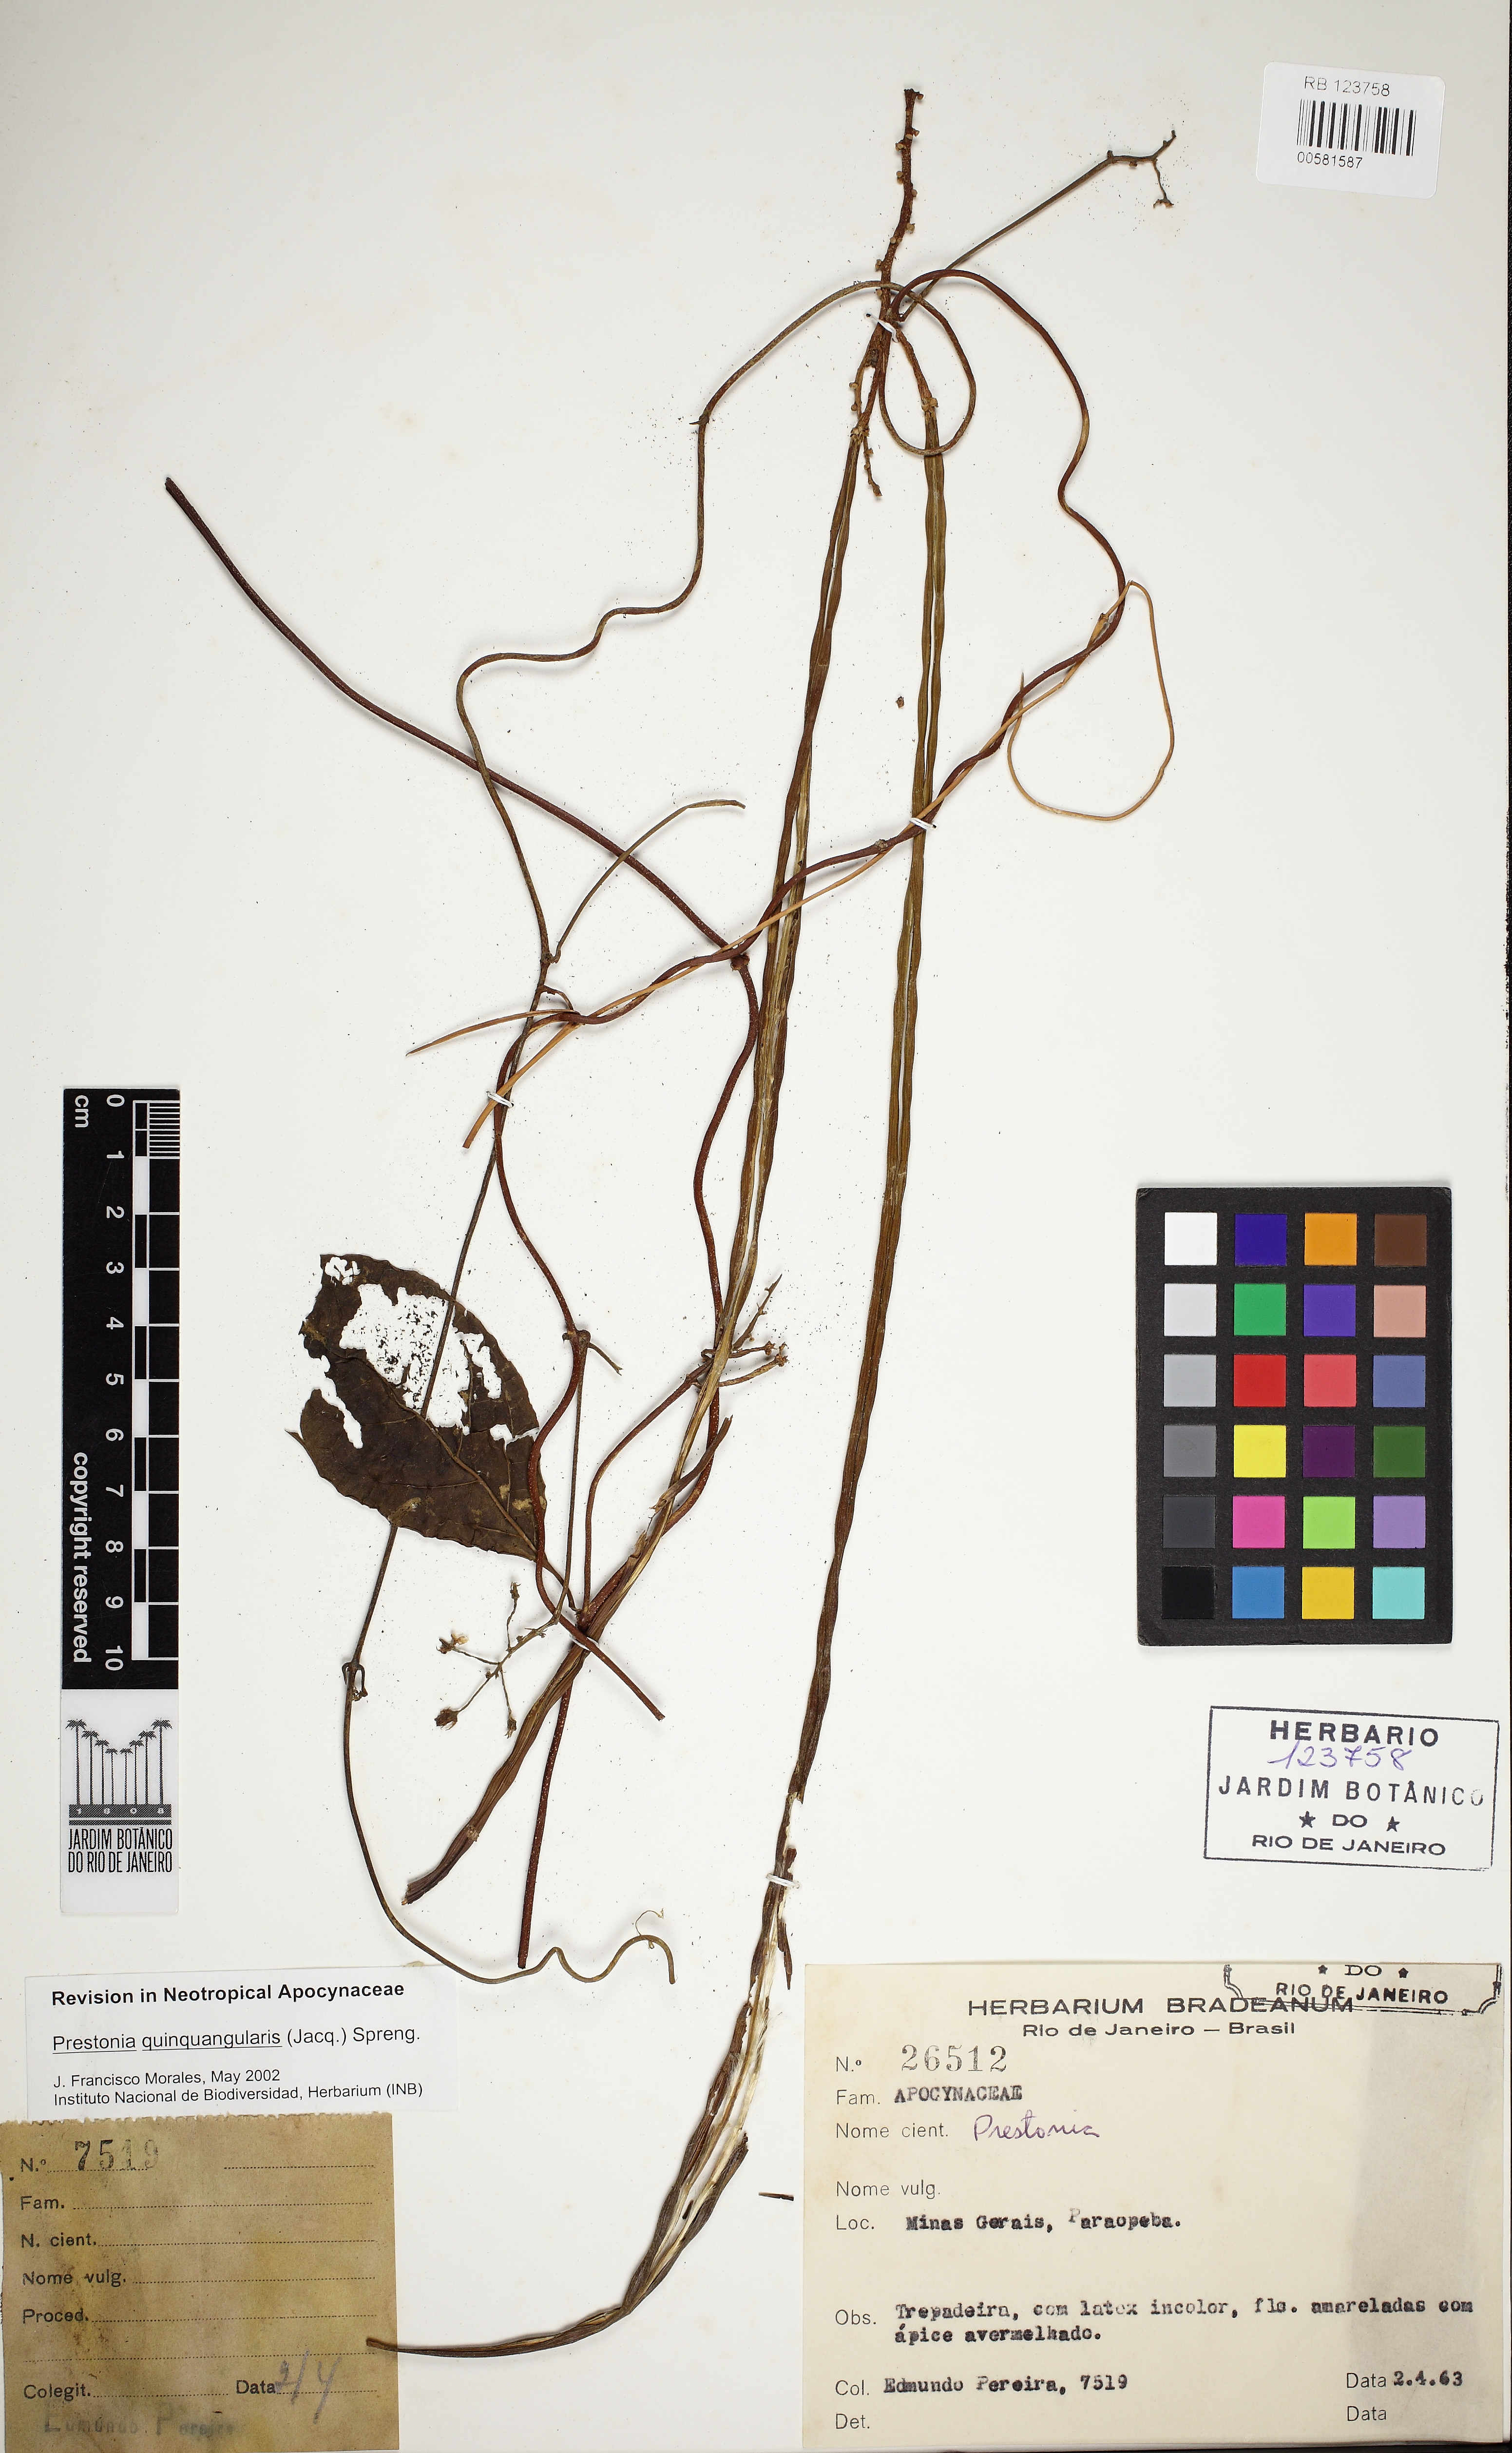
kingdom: Plantae
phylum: Tracheophyta
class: Magnoliopsida
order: Gentianales
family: Apocynaceae
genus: Prestonia
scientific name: Prestonia quinquangularis
